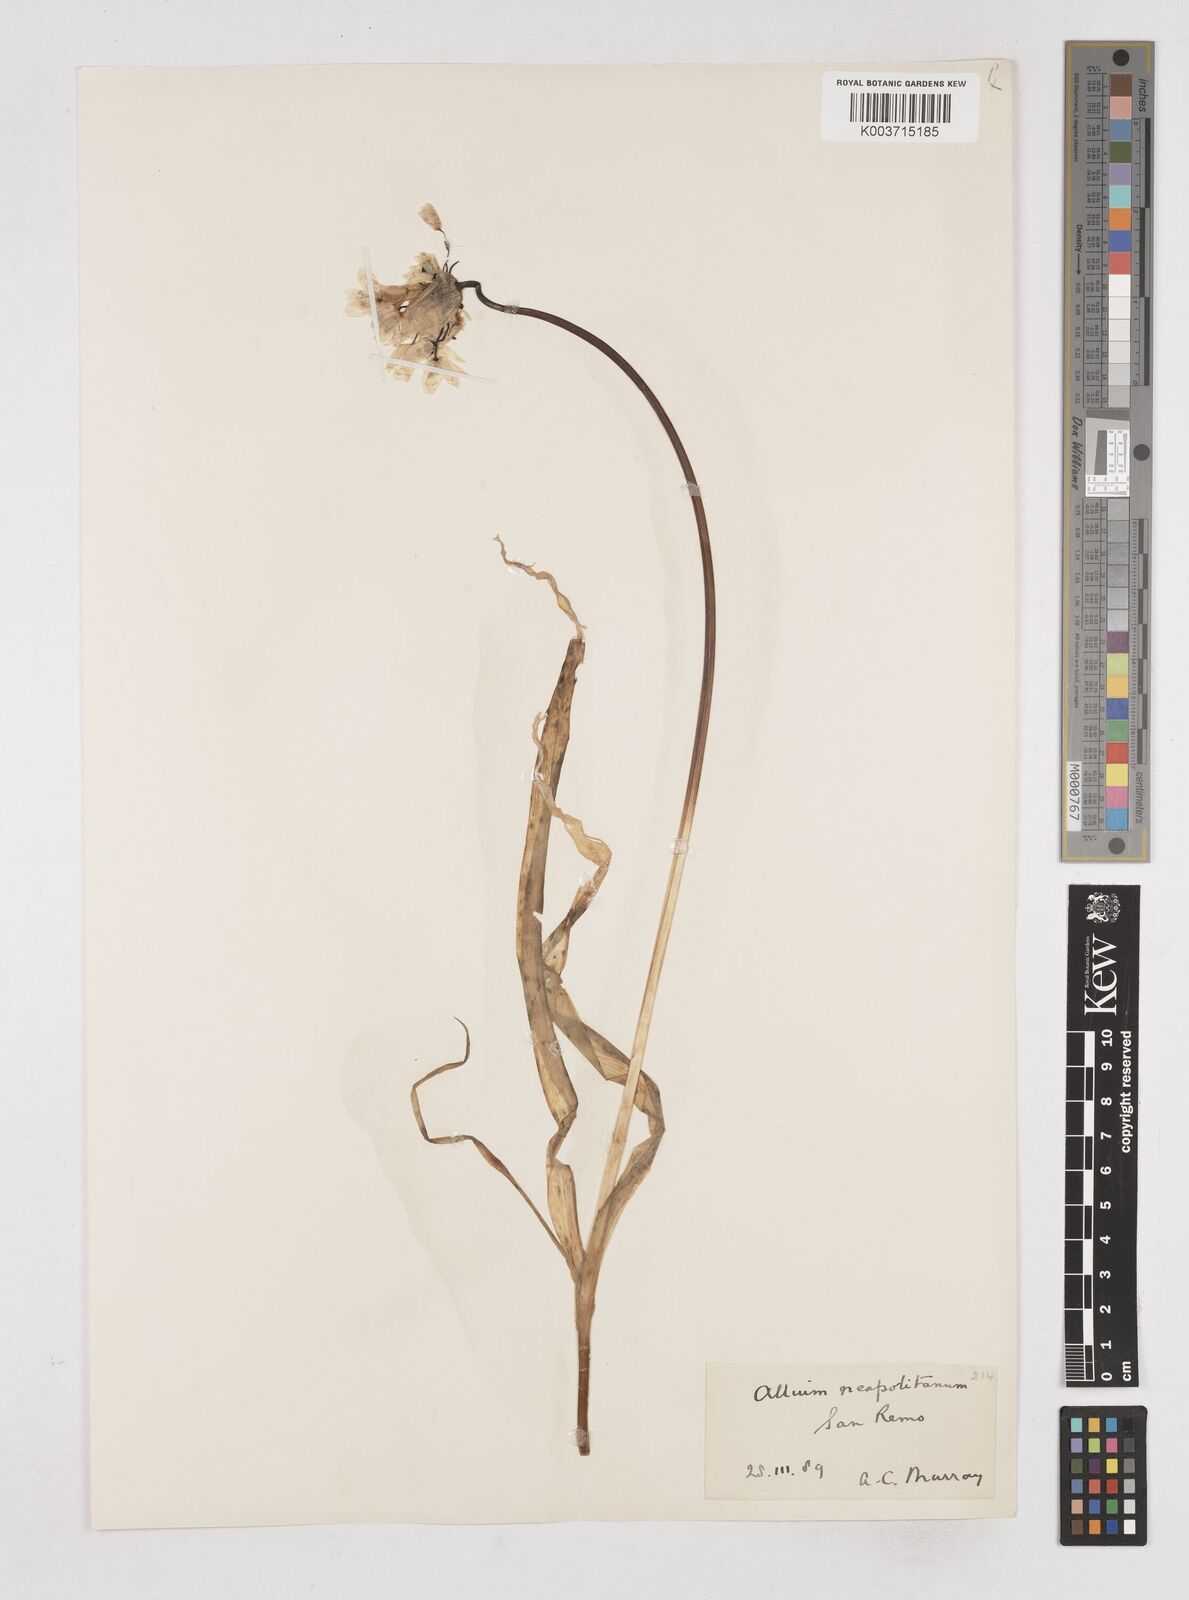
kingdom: Plantae
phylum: Tracheophyta
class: Liliopsida
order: Asparagales
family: Amaryllidaceae
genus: Allium
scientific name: Allium neapolitanum
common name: Neapolitan garlic
